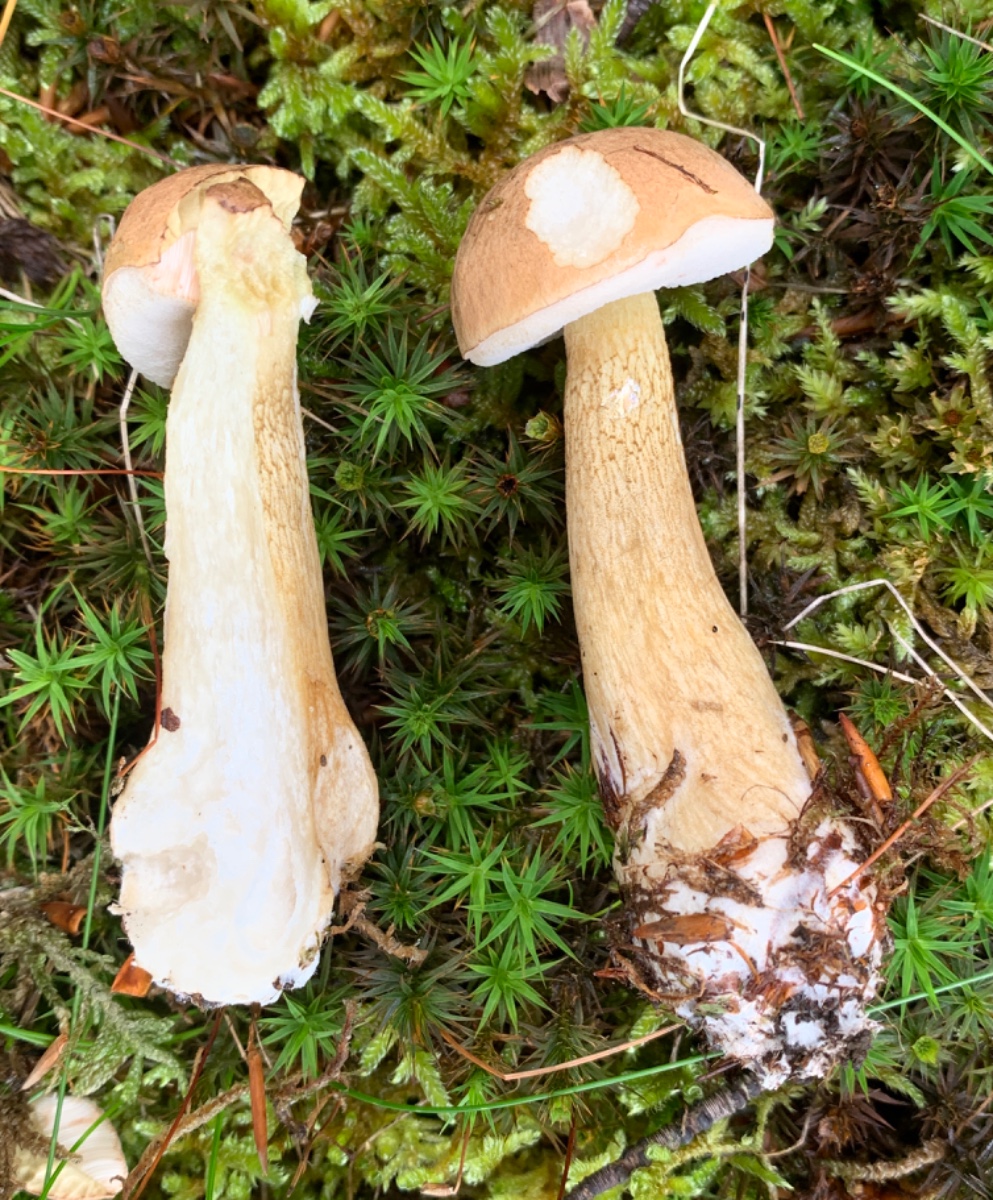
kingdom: Fungi
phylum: Basidiomycota
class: Agaricomycetes
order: Boletales
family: Boletaceae
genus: Tylopilus
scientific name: Tylopilus felleus
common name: galderørhat
